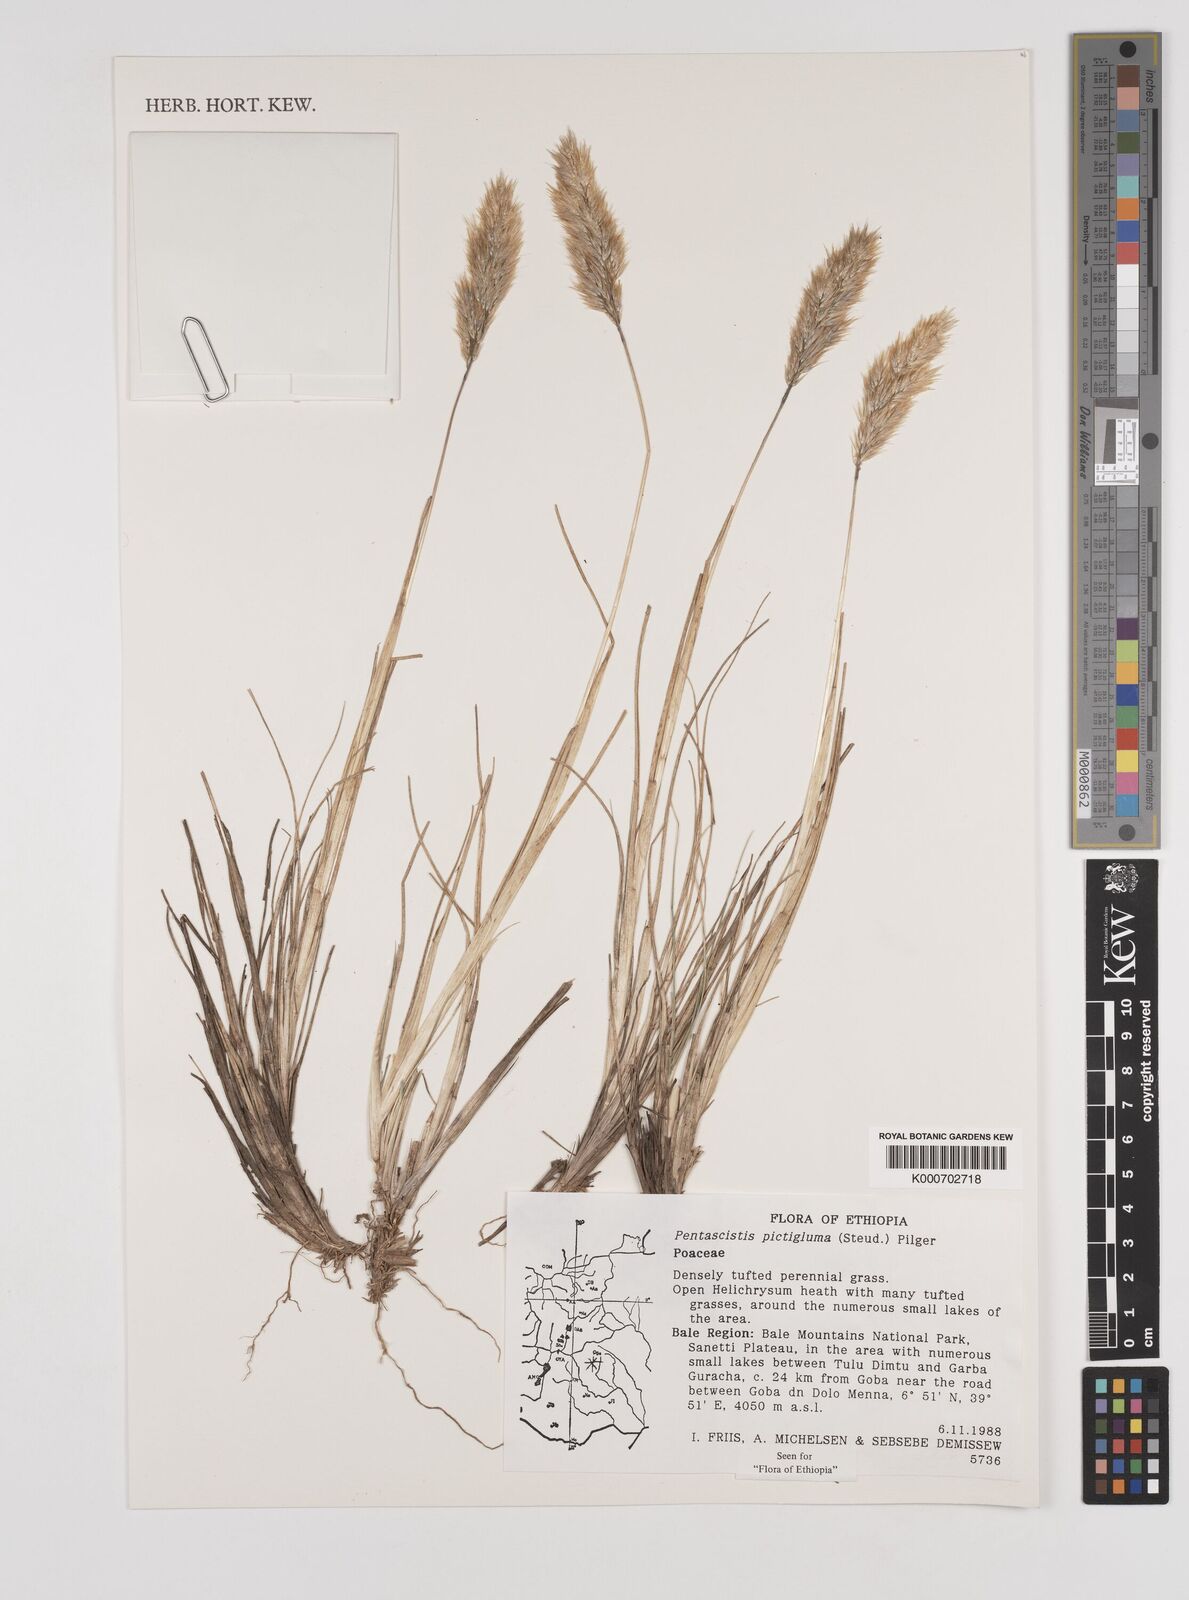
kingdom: Plantae
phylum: Tracheophyta
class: Liliopsida
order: Poales
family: Poaceae
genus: Pentameris
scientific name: Pentameris pictigluma
